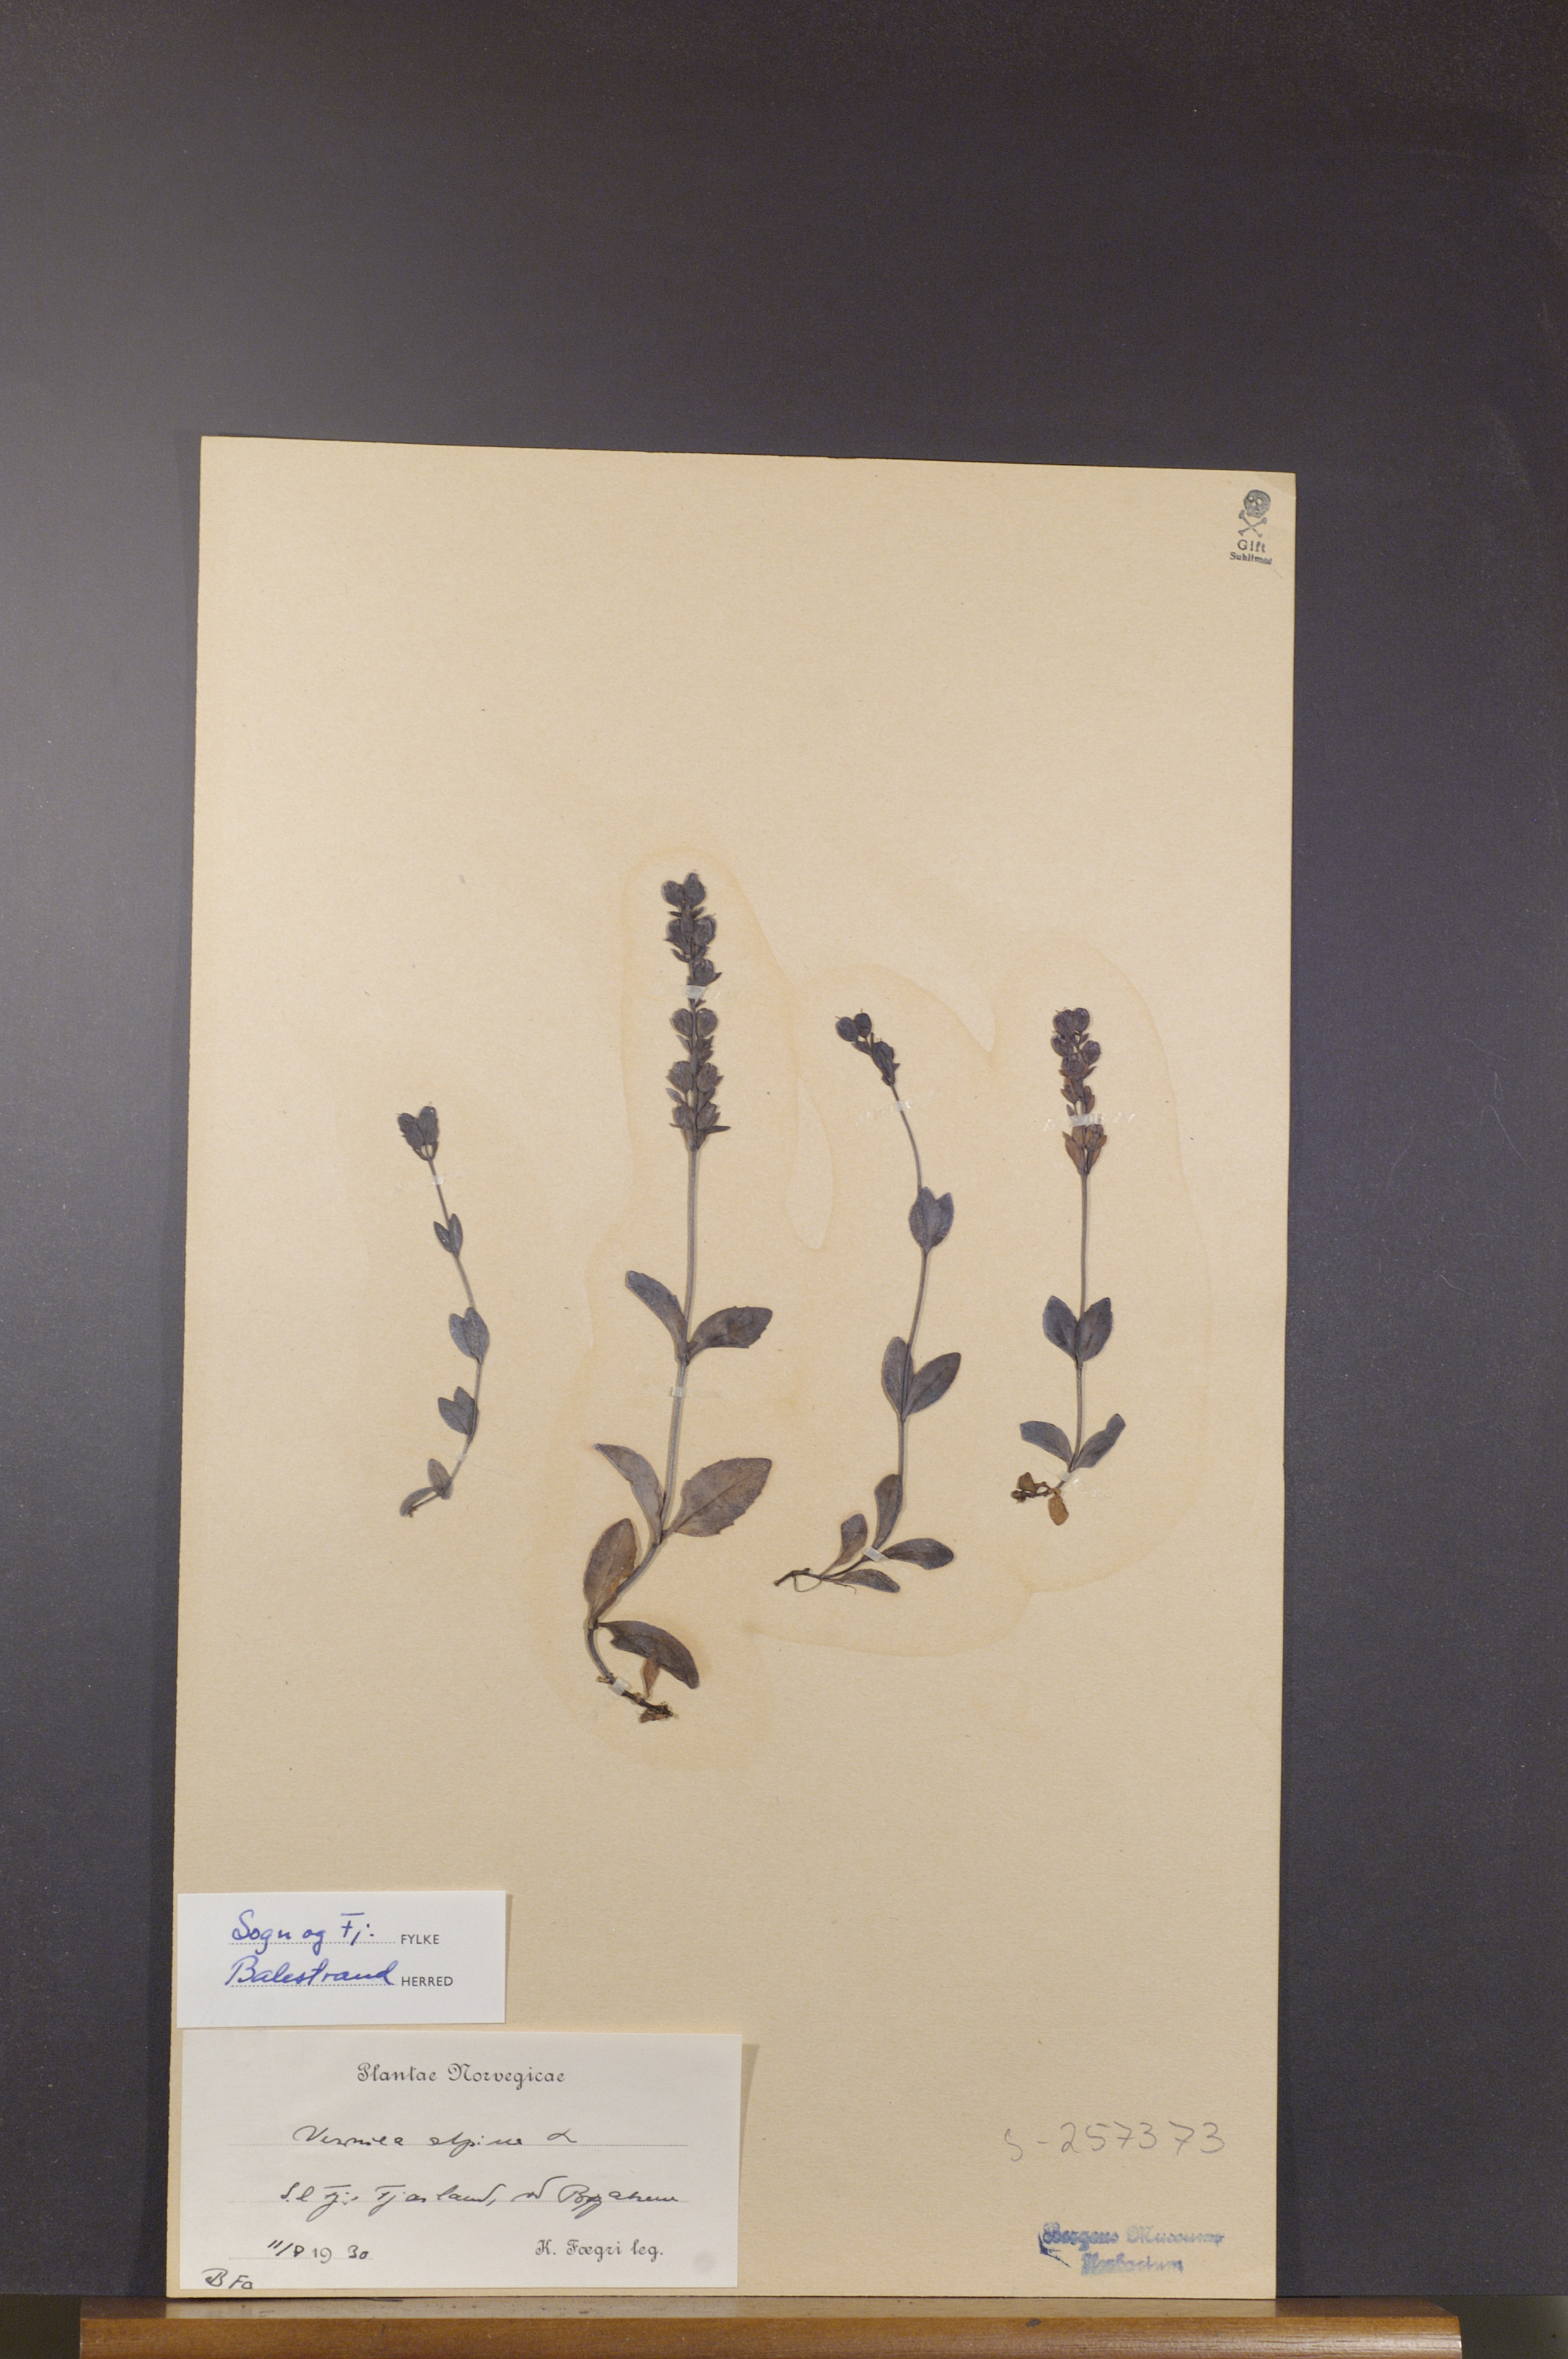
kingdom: Plantae
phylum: Tracheophyta
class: Magnoliopsida
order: Lamiales
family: Plantaginaceae
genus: Veronica
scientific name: Veronica alpina
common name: Alpine speedwell
